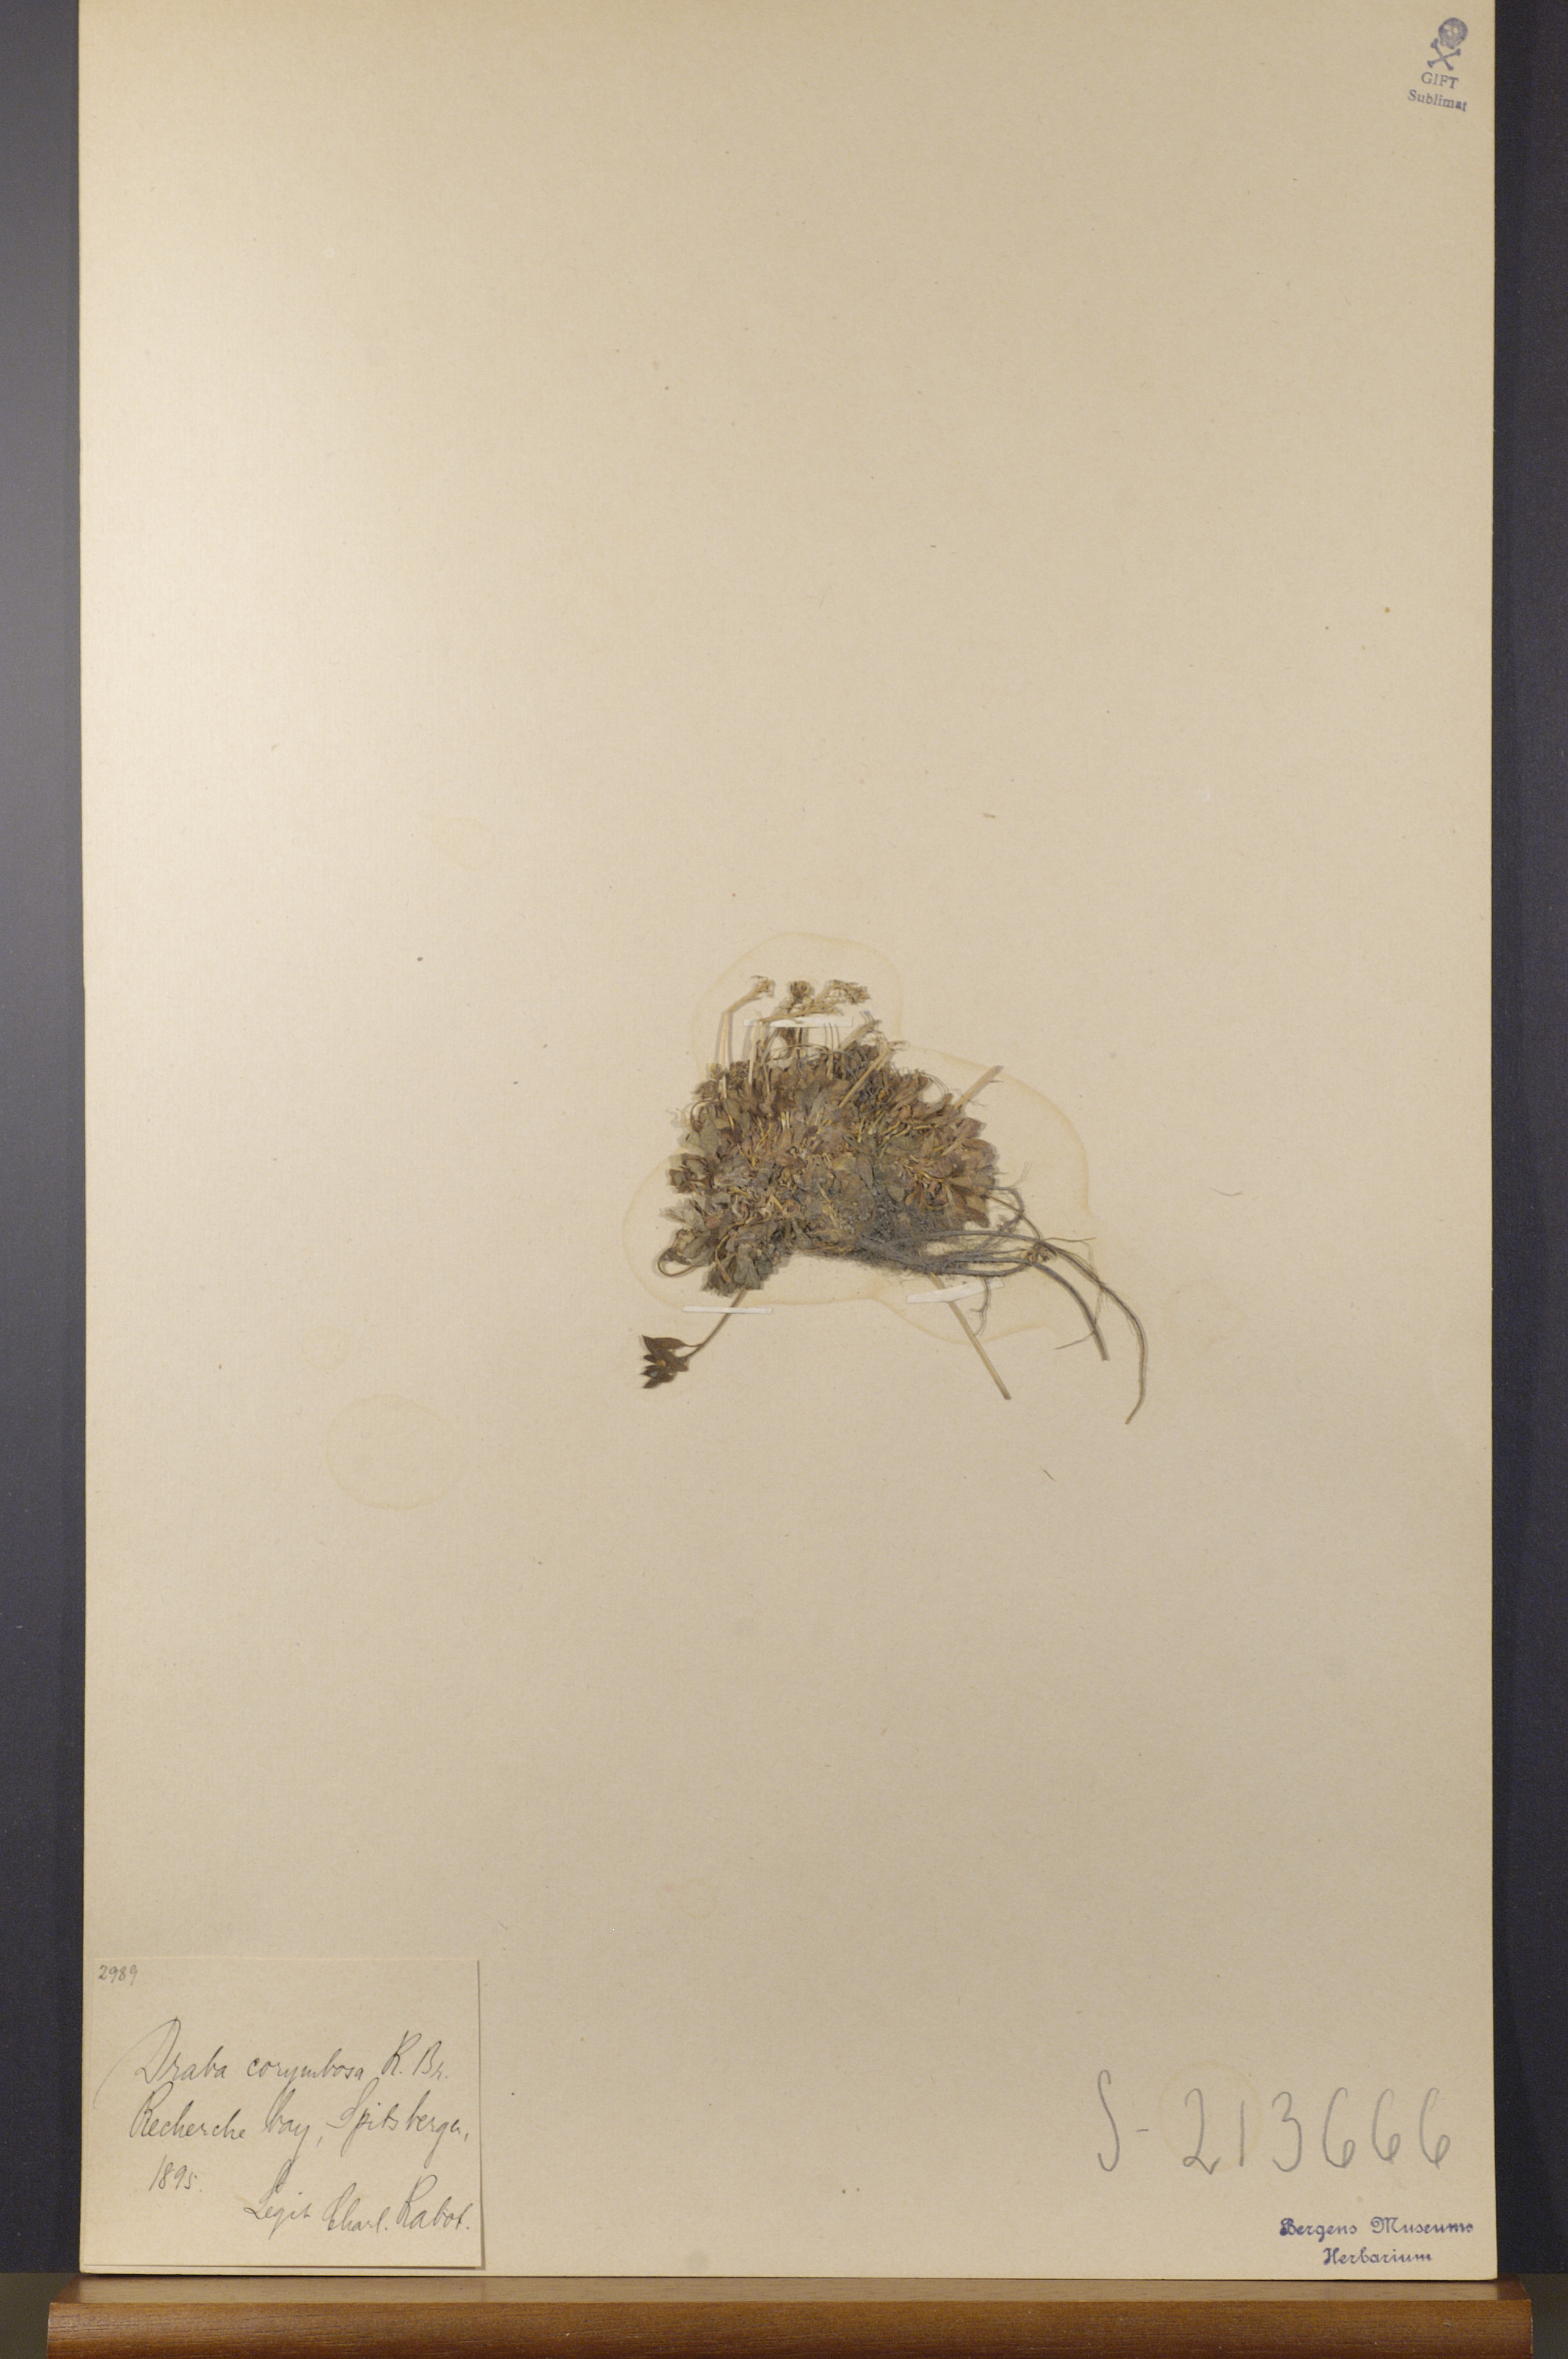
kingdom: Plantae
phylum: Tracheophyta
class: Magnoliopsida
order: Brassicales
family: Brassicaceae
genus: Draba
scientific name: Draba corymbosa
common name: Cushion whitlow-grass
